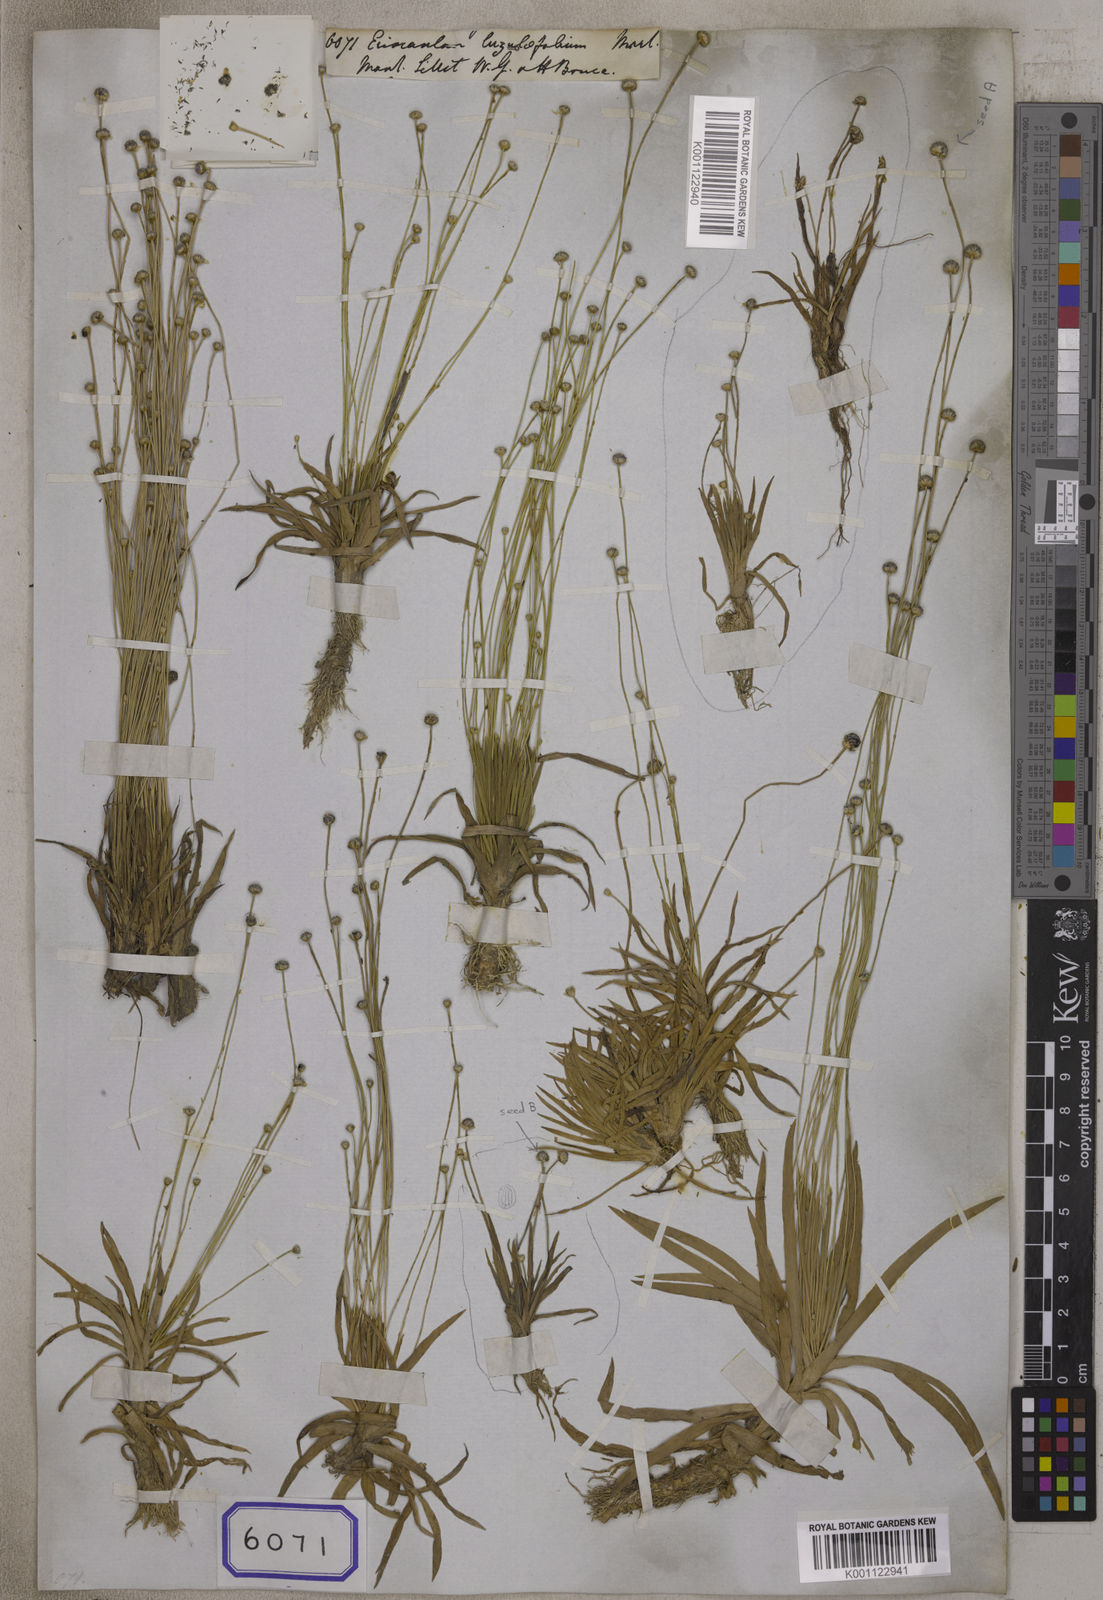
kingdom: Plantae
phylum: Tracheophyta
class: Liliopsida
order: Poales
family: Eriocaulaceae
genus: Eriocaulon
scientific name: Eriocaulon nepalense
